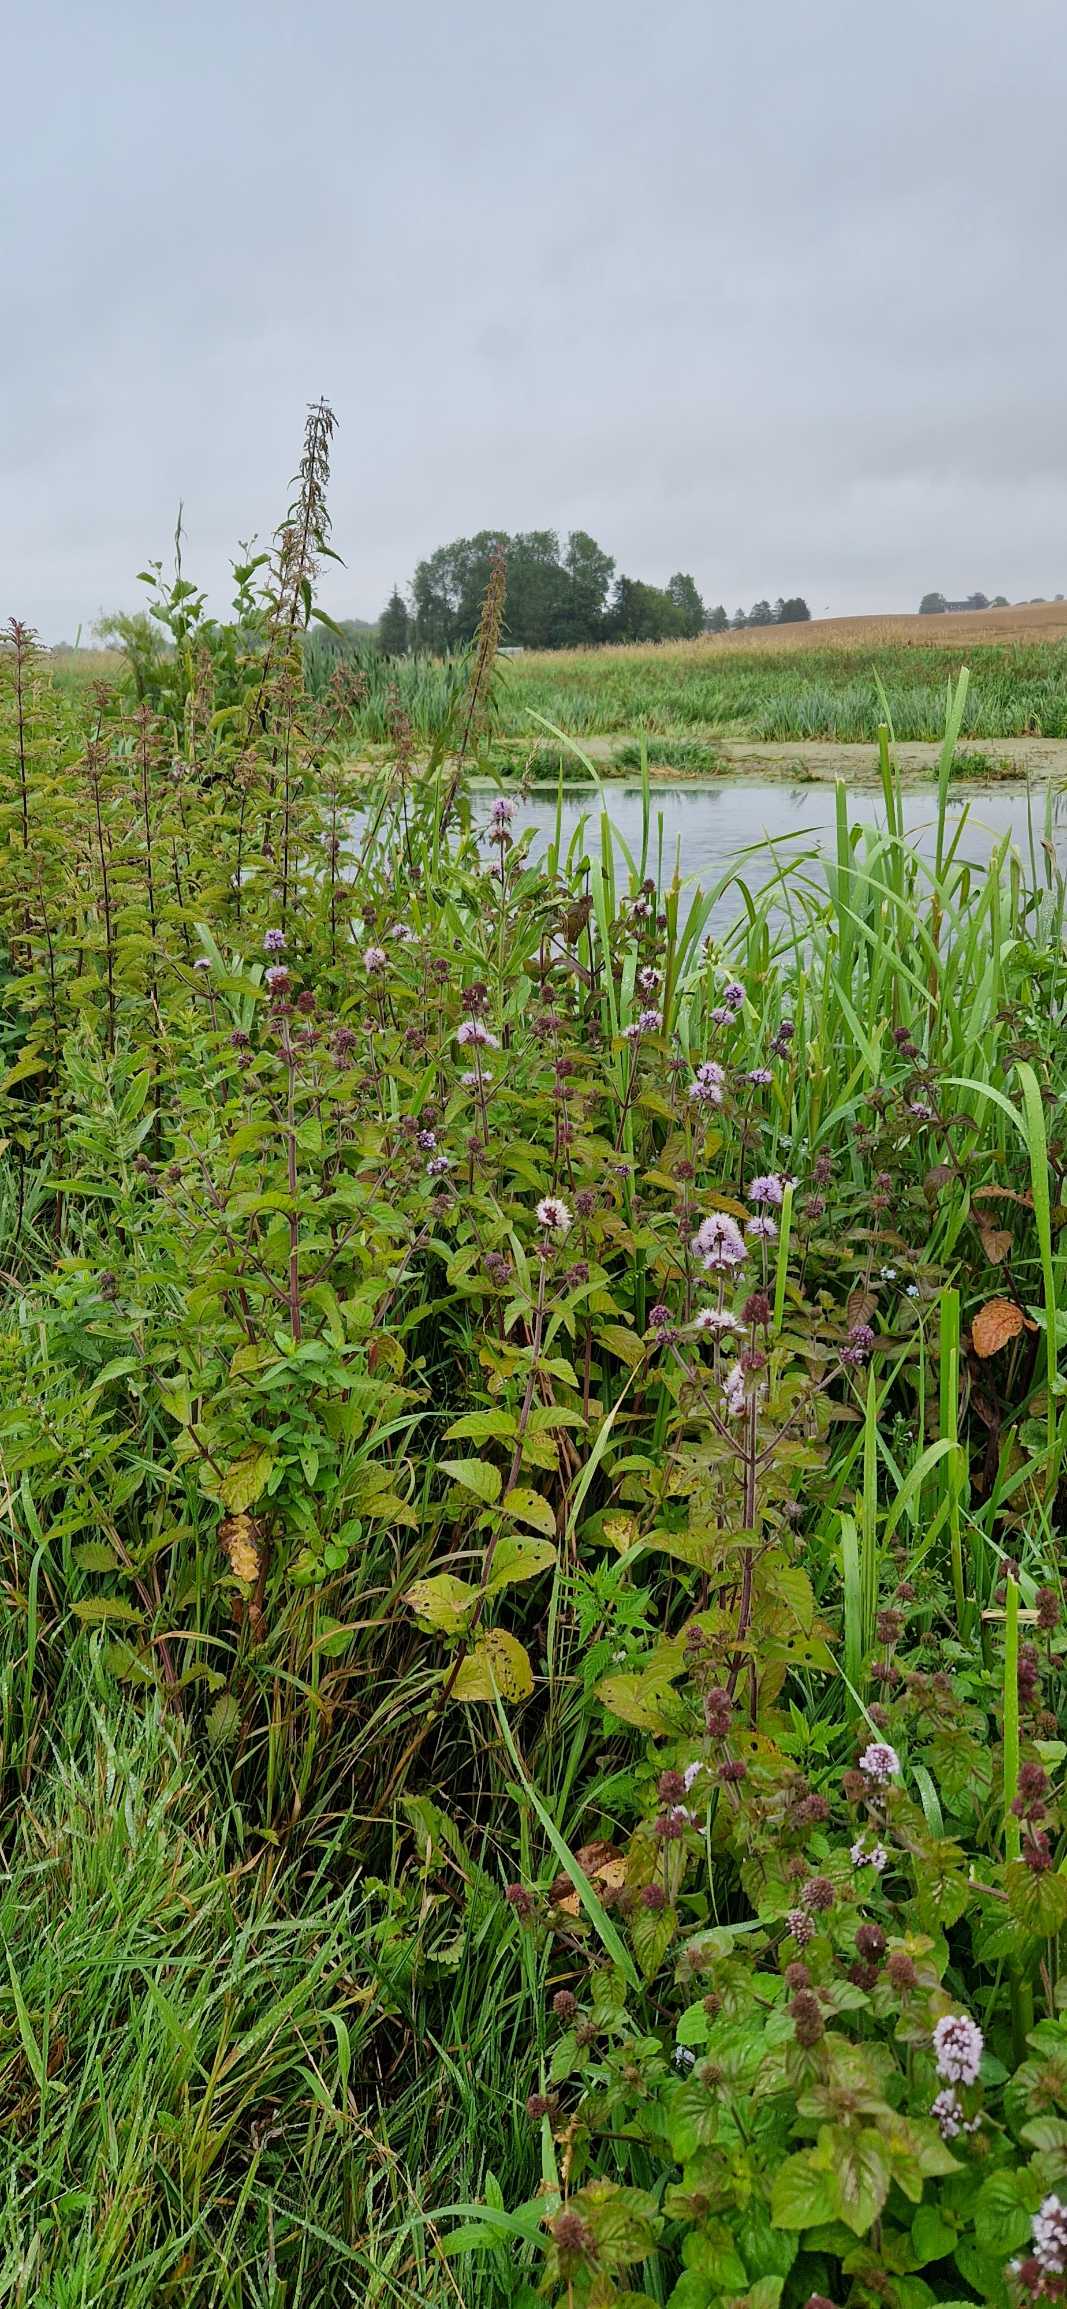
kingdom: Plantae
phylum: Tracheophyta
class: Magnoliopsida
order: Lamiales
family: Lamiaceae
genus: Mentha
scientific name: Mentha aquatica
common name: Vand-mynte
